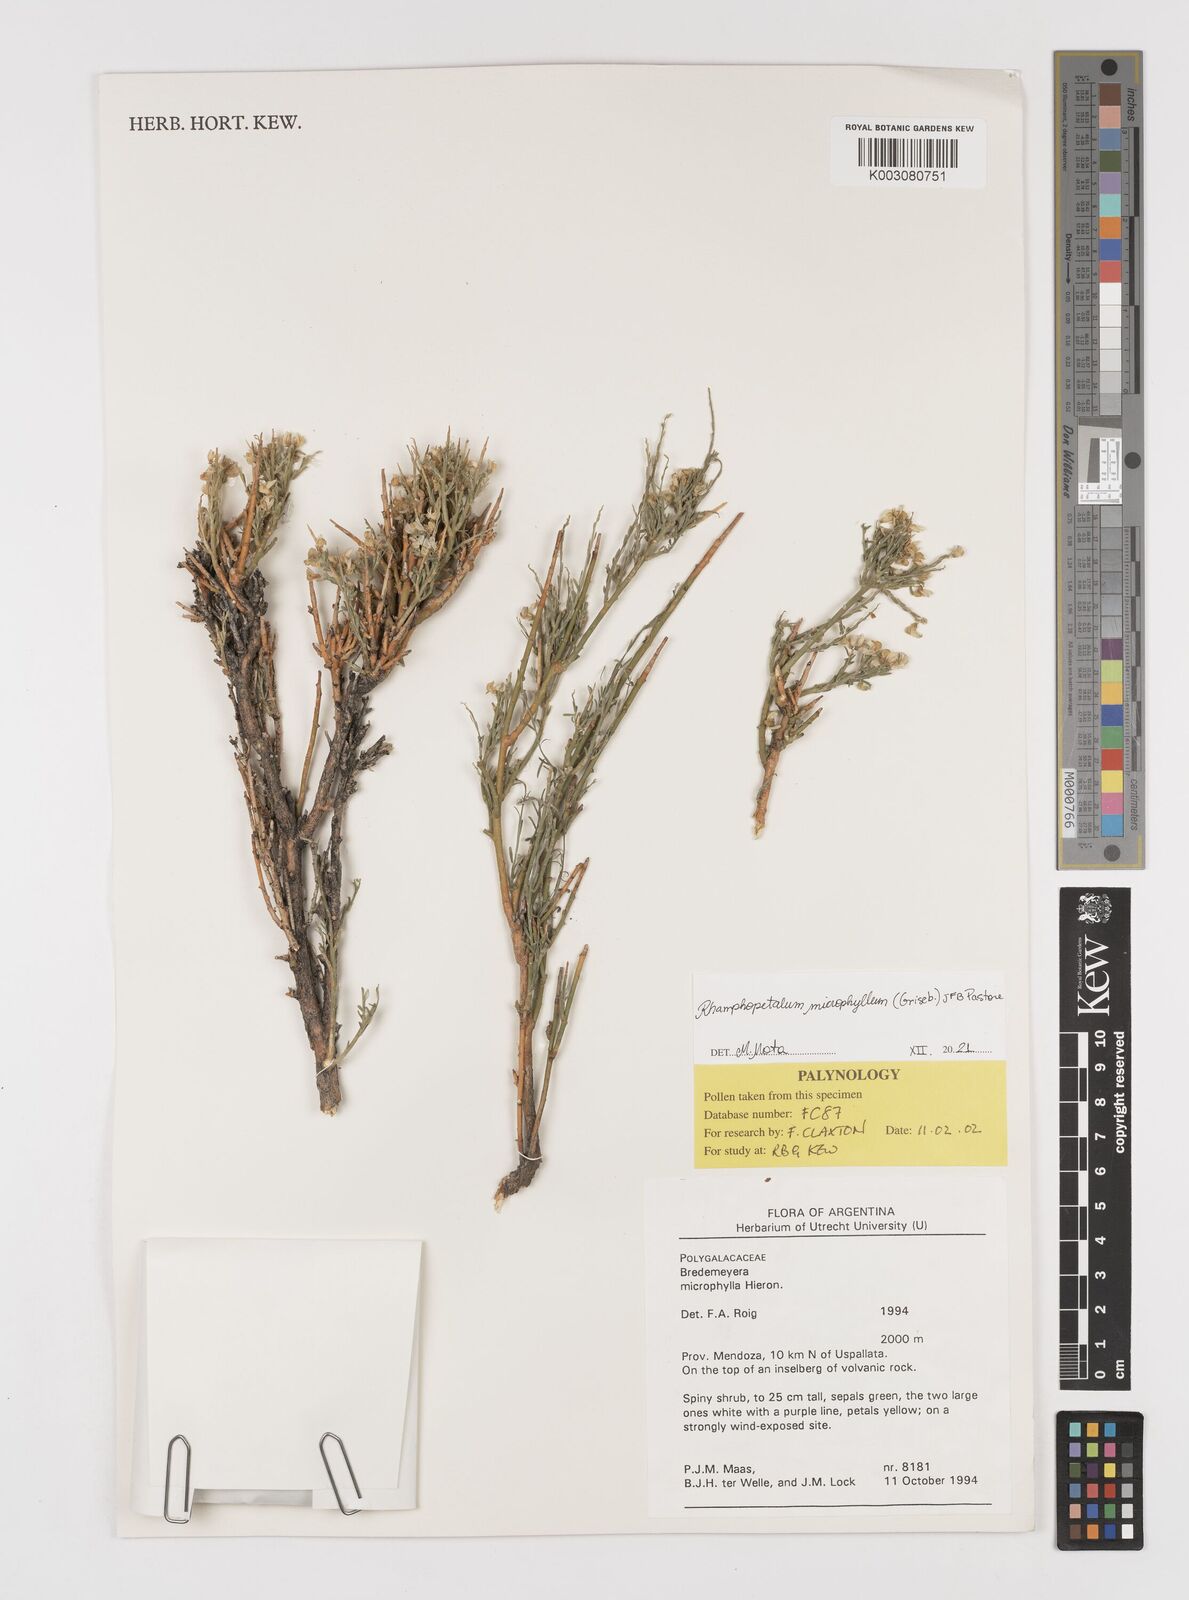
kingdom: Plantae
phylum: Tracheophyta
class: Magnoliopsida
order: Fabales
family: Polygalaceae
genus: Rhamphopetalum
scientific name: Rhamphopetalum microphyllum
